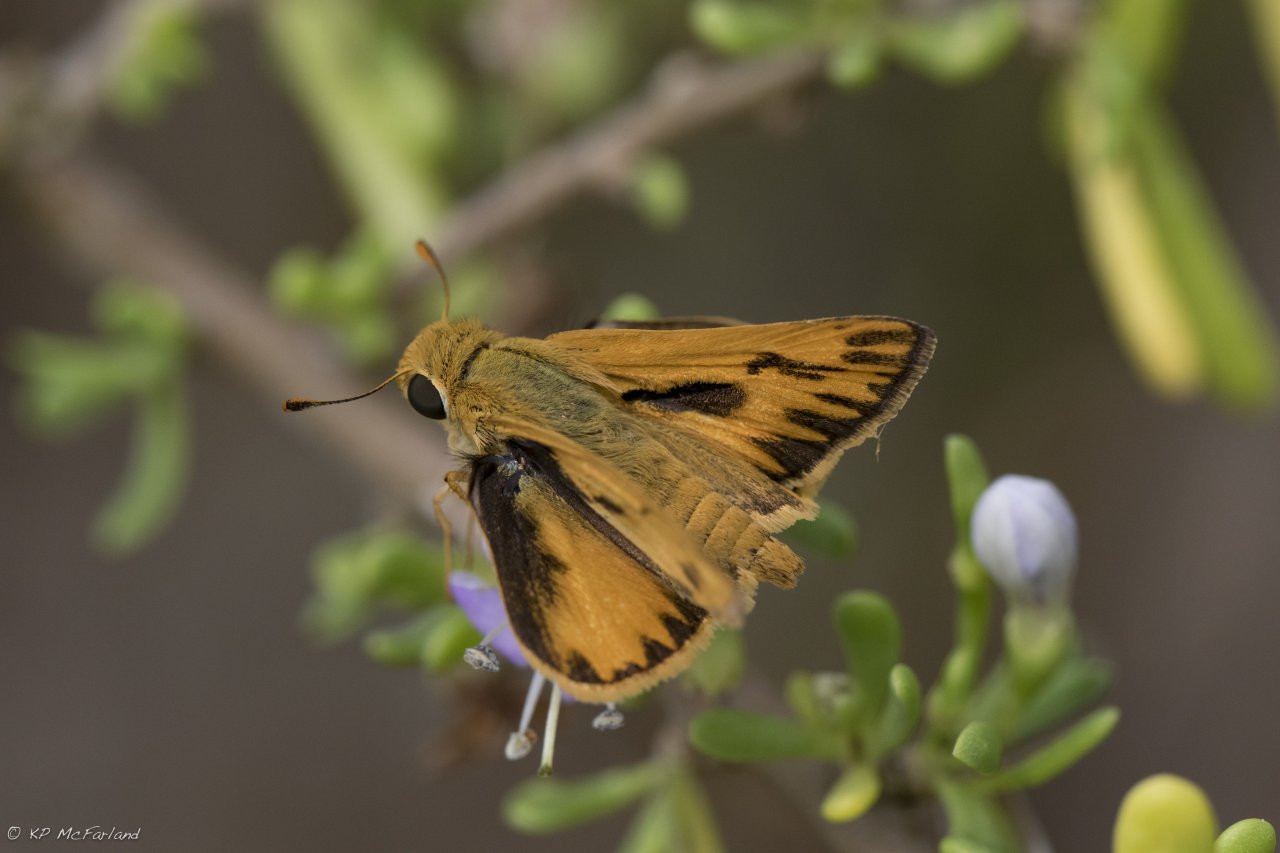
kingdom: Animalia
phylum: Arthropoda
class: Insecta
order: Lepidoptera
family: Hesperiidae
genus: Hylephila
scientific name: Hylephila phyleus
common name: Fiery Skipper
